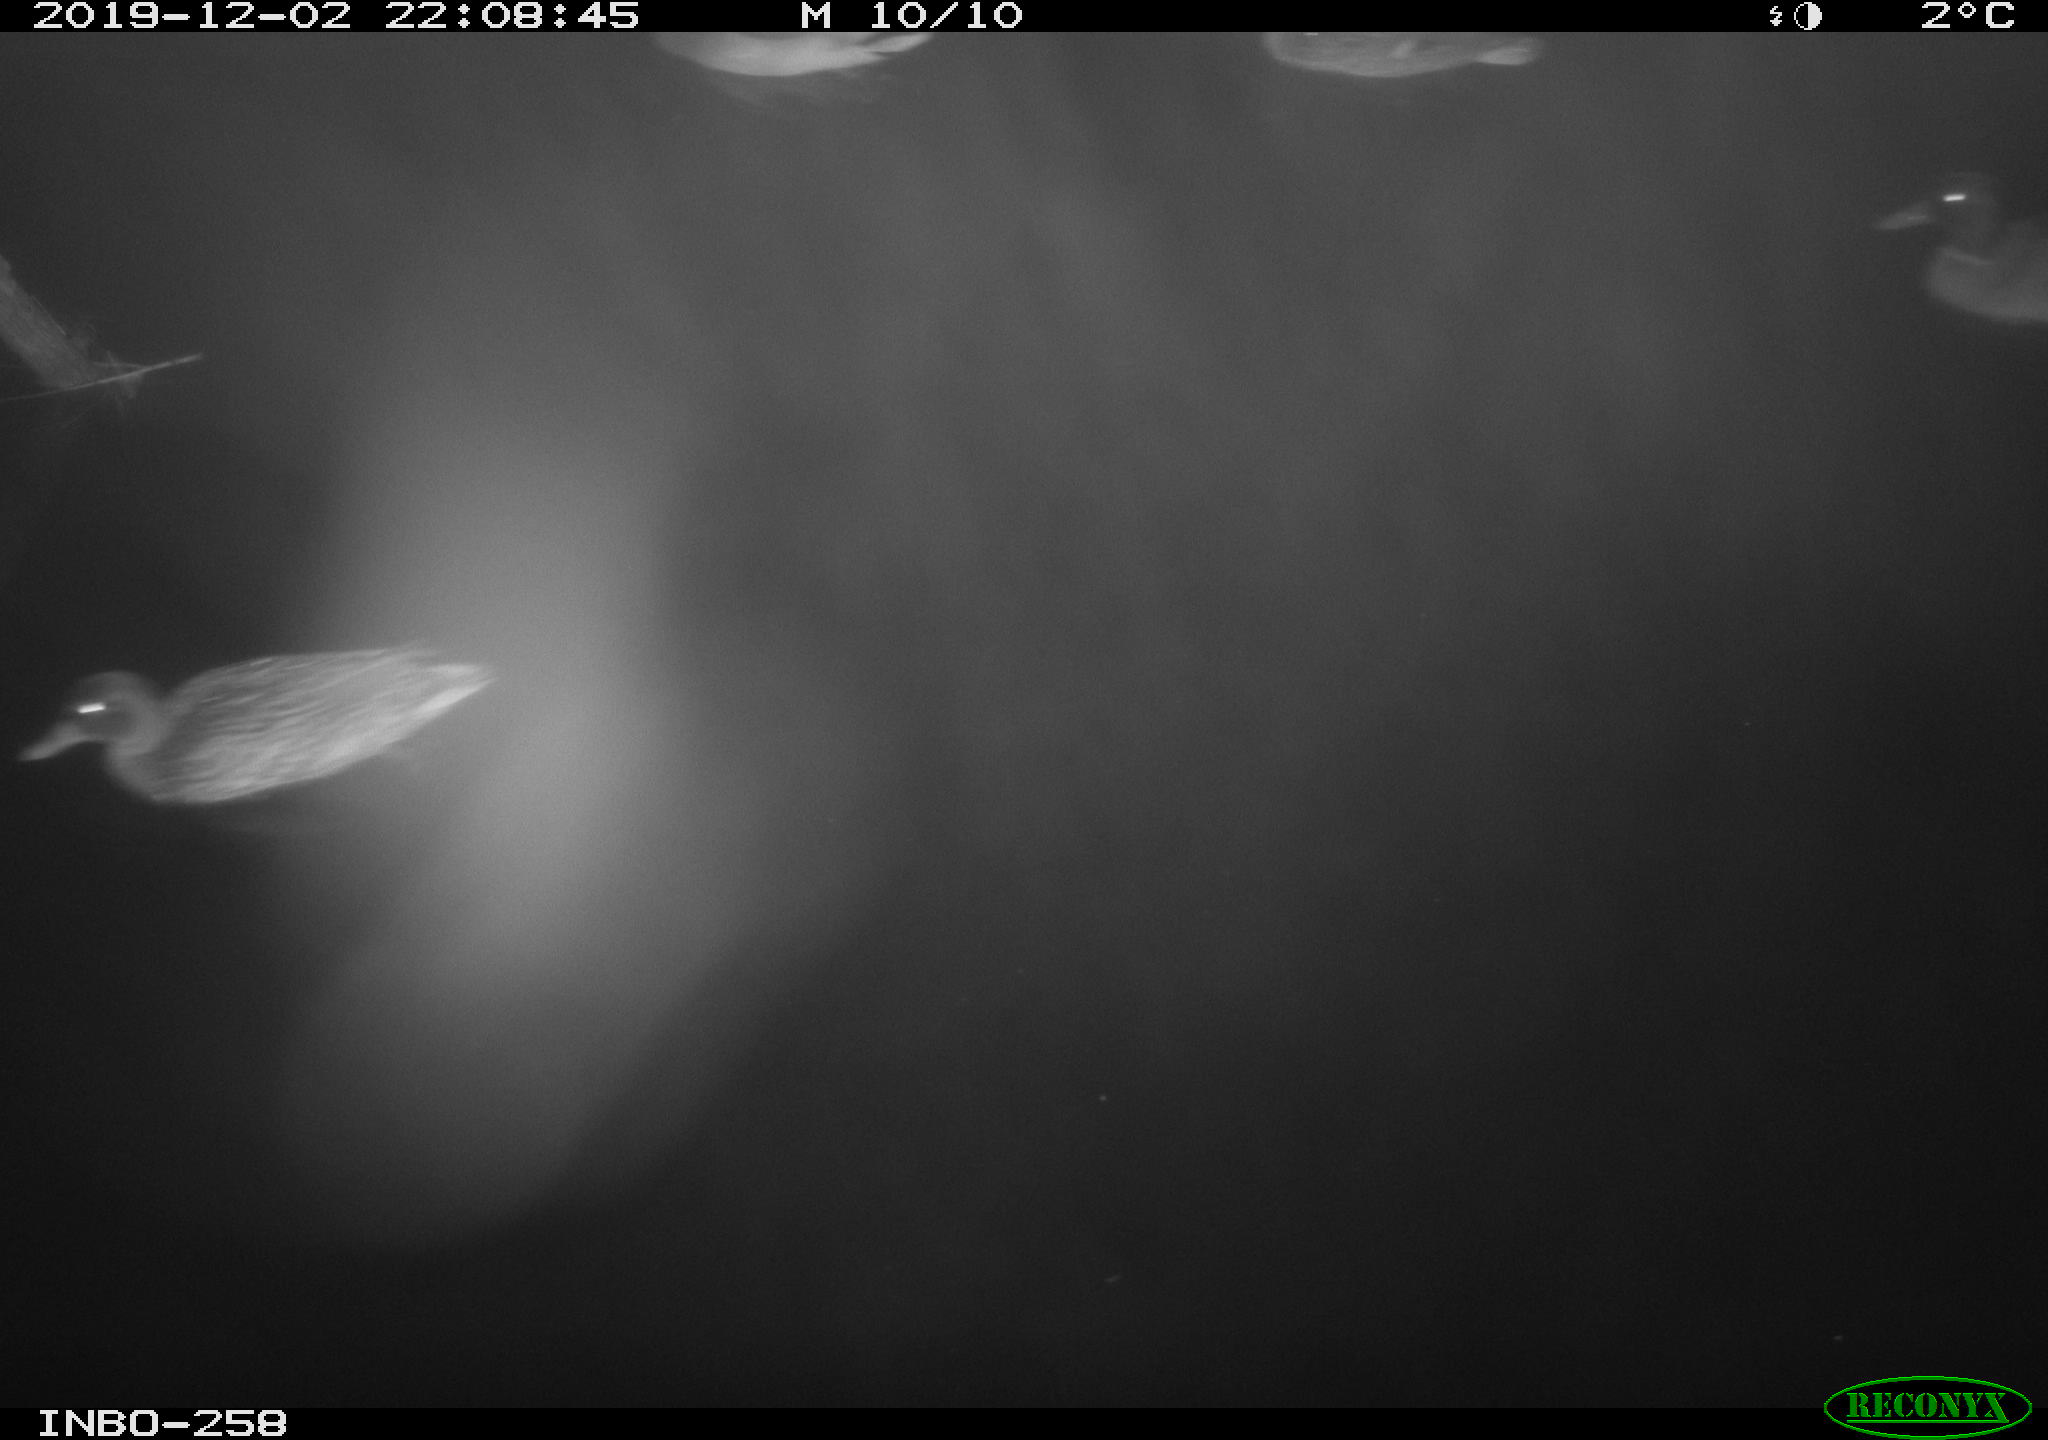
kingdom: Animalia
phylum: Chordata
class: Aves
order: Anseriformes
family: Anatidae
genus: Anas
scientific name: Anas platyrhynchos
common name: Mallard
